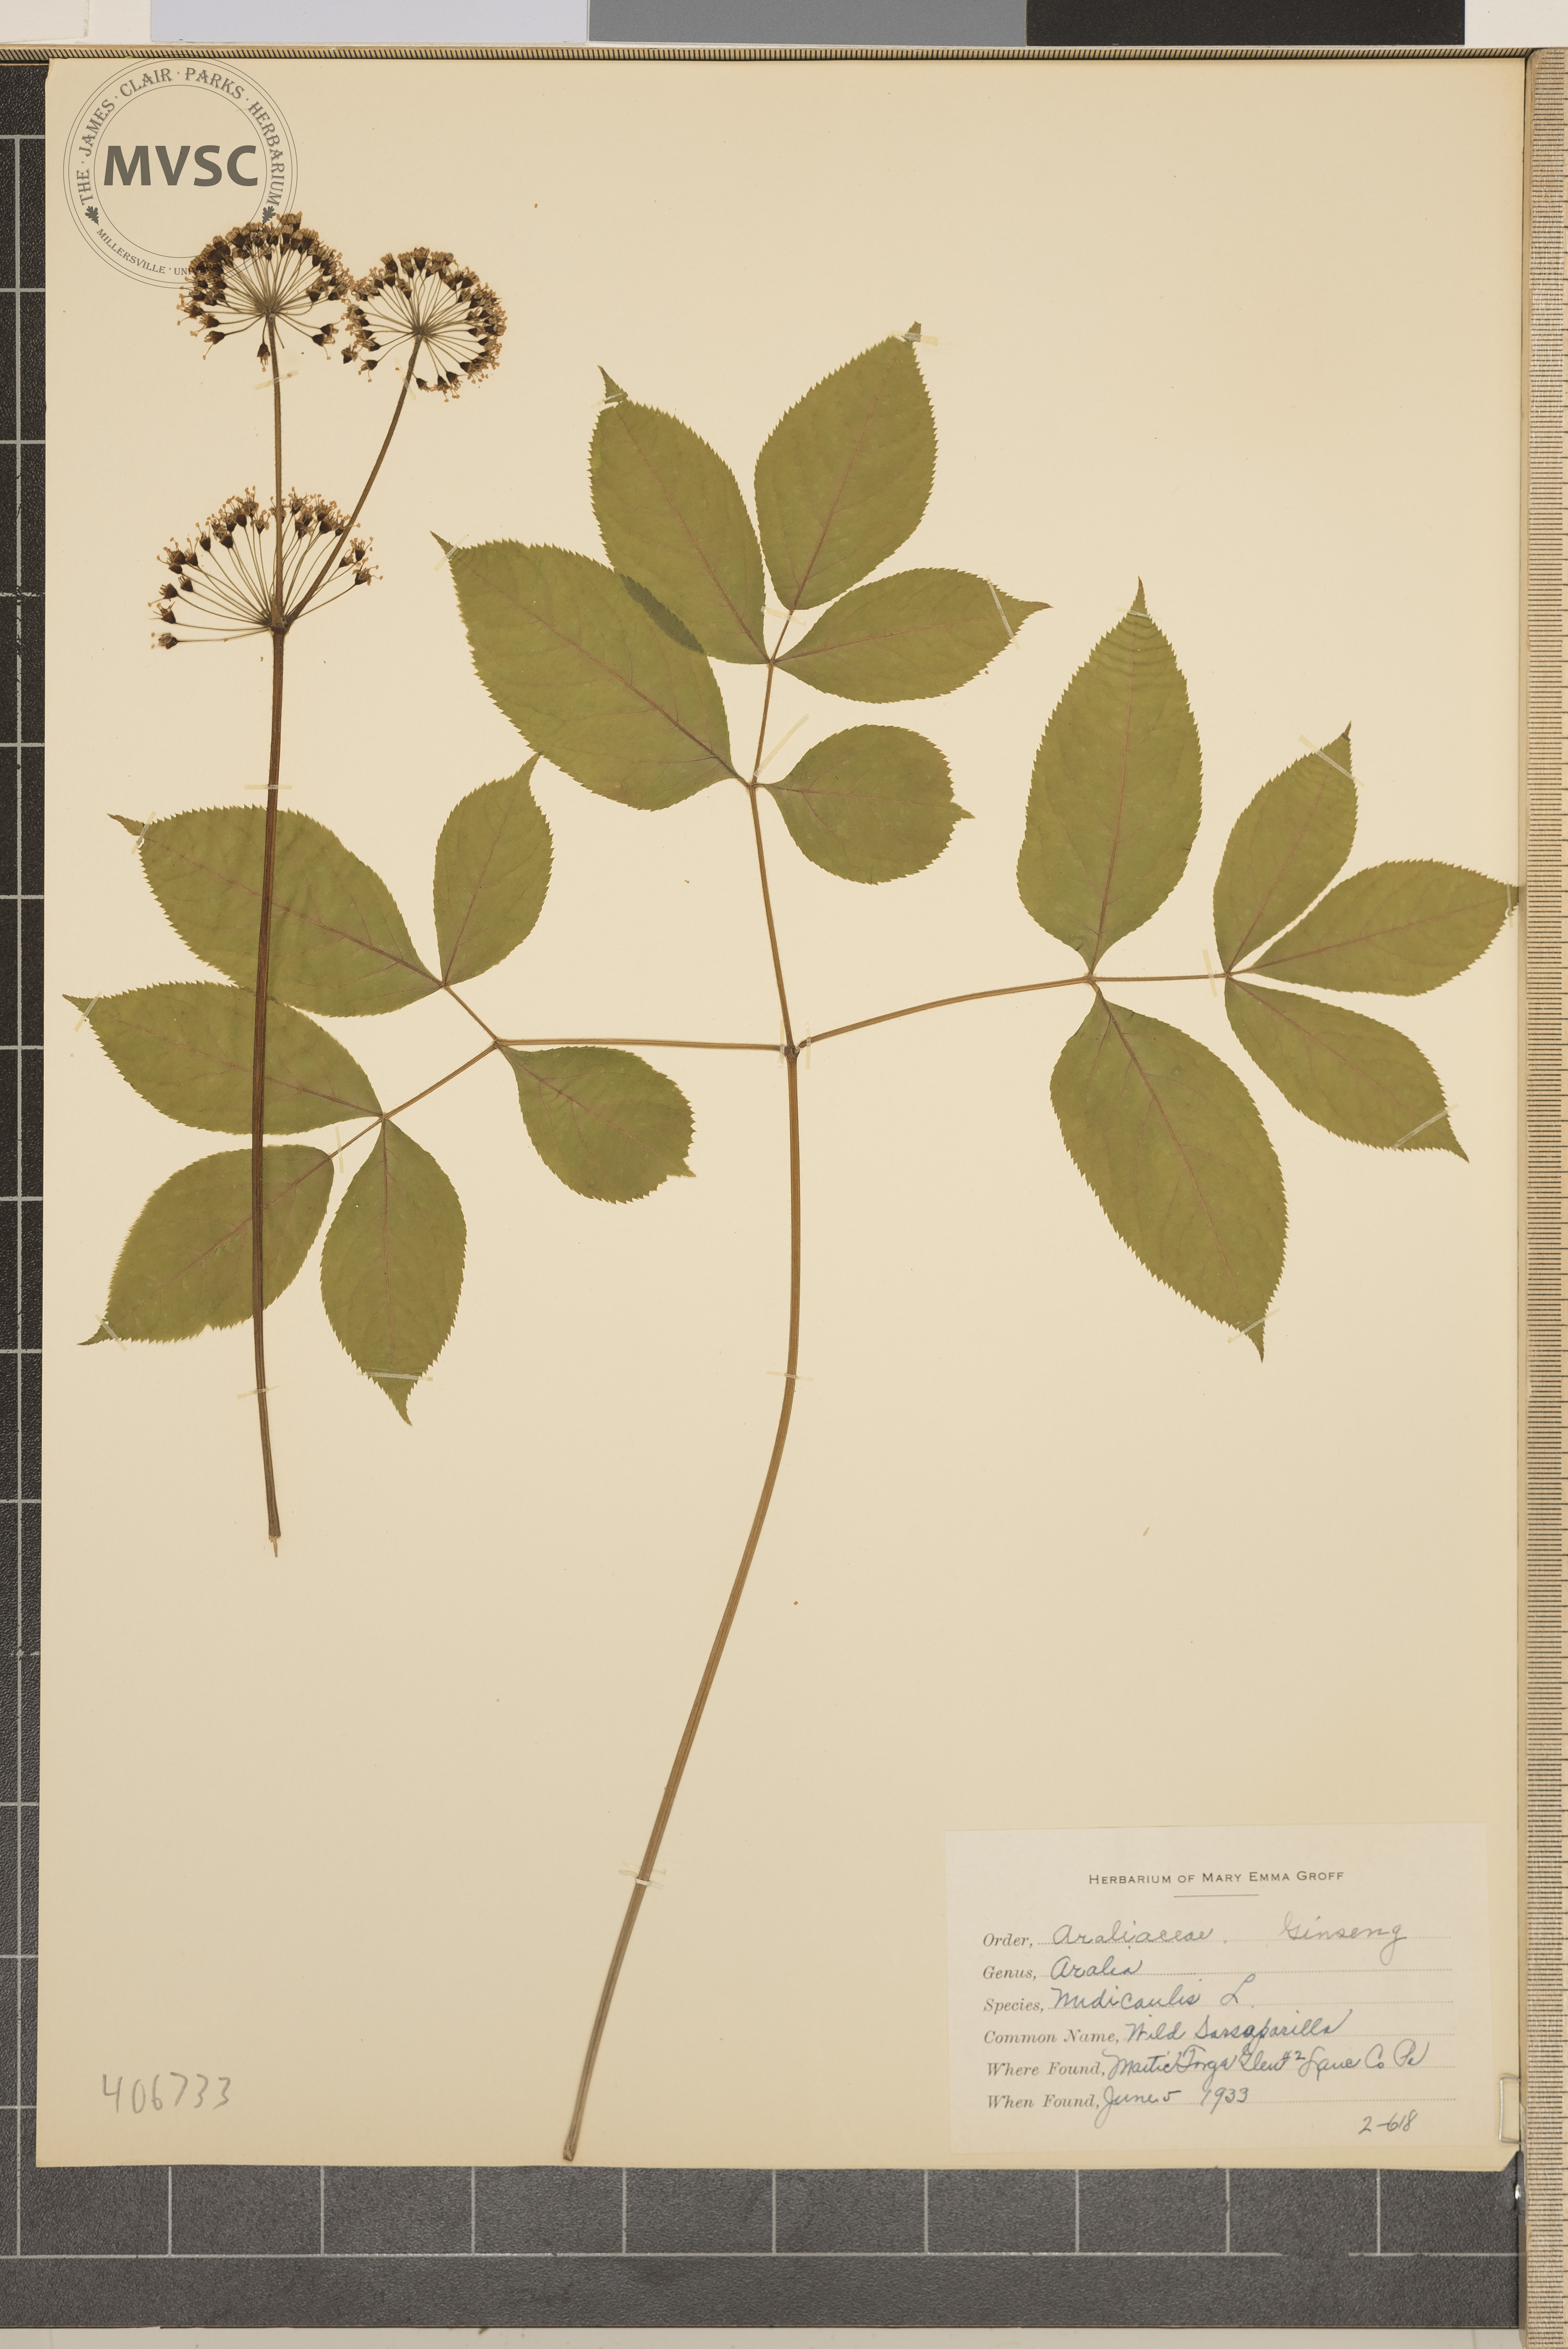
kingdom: Plantae
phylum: Tracheophyta
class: Magnoliopsida
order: Apiales
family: Araliaceae
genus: Aralia
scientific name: Aralia nudicaulis
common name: Wild Sarsaparilla
